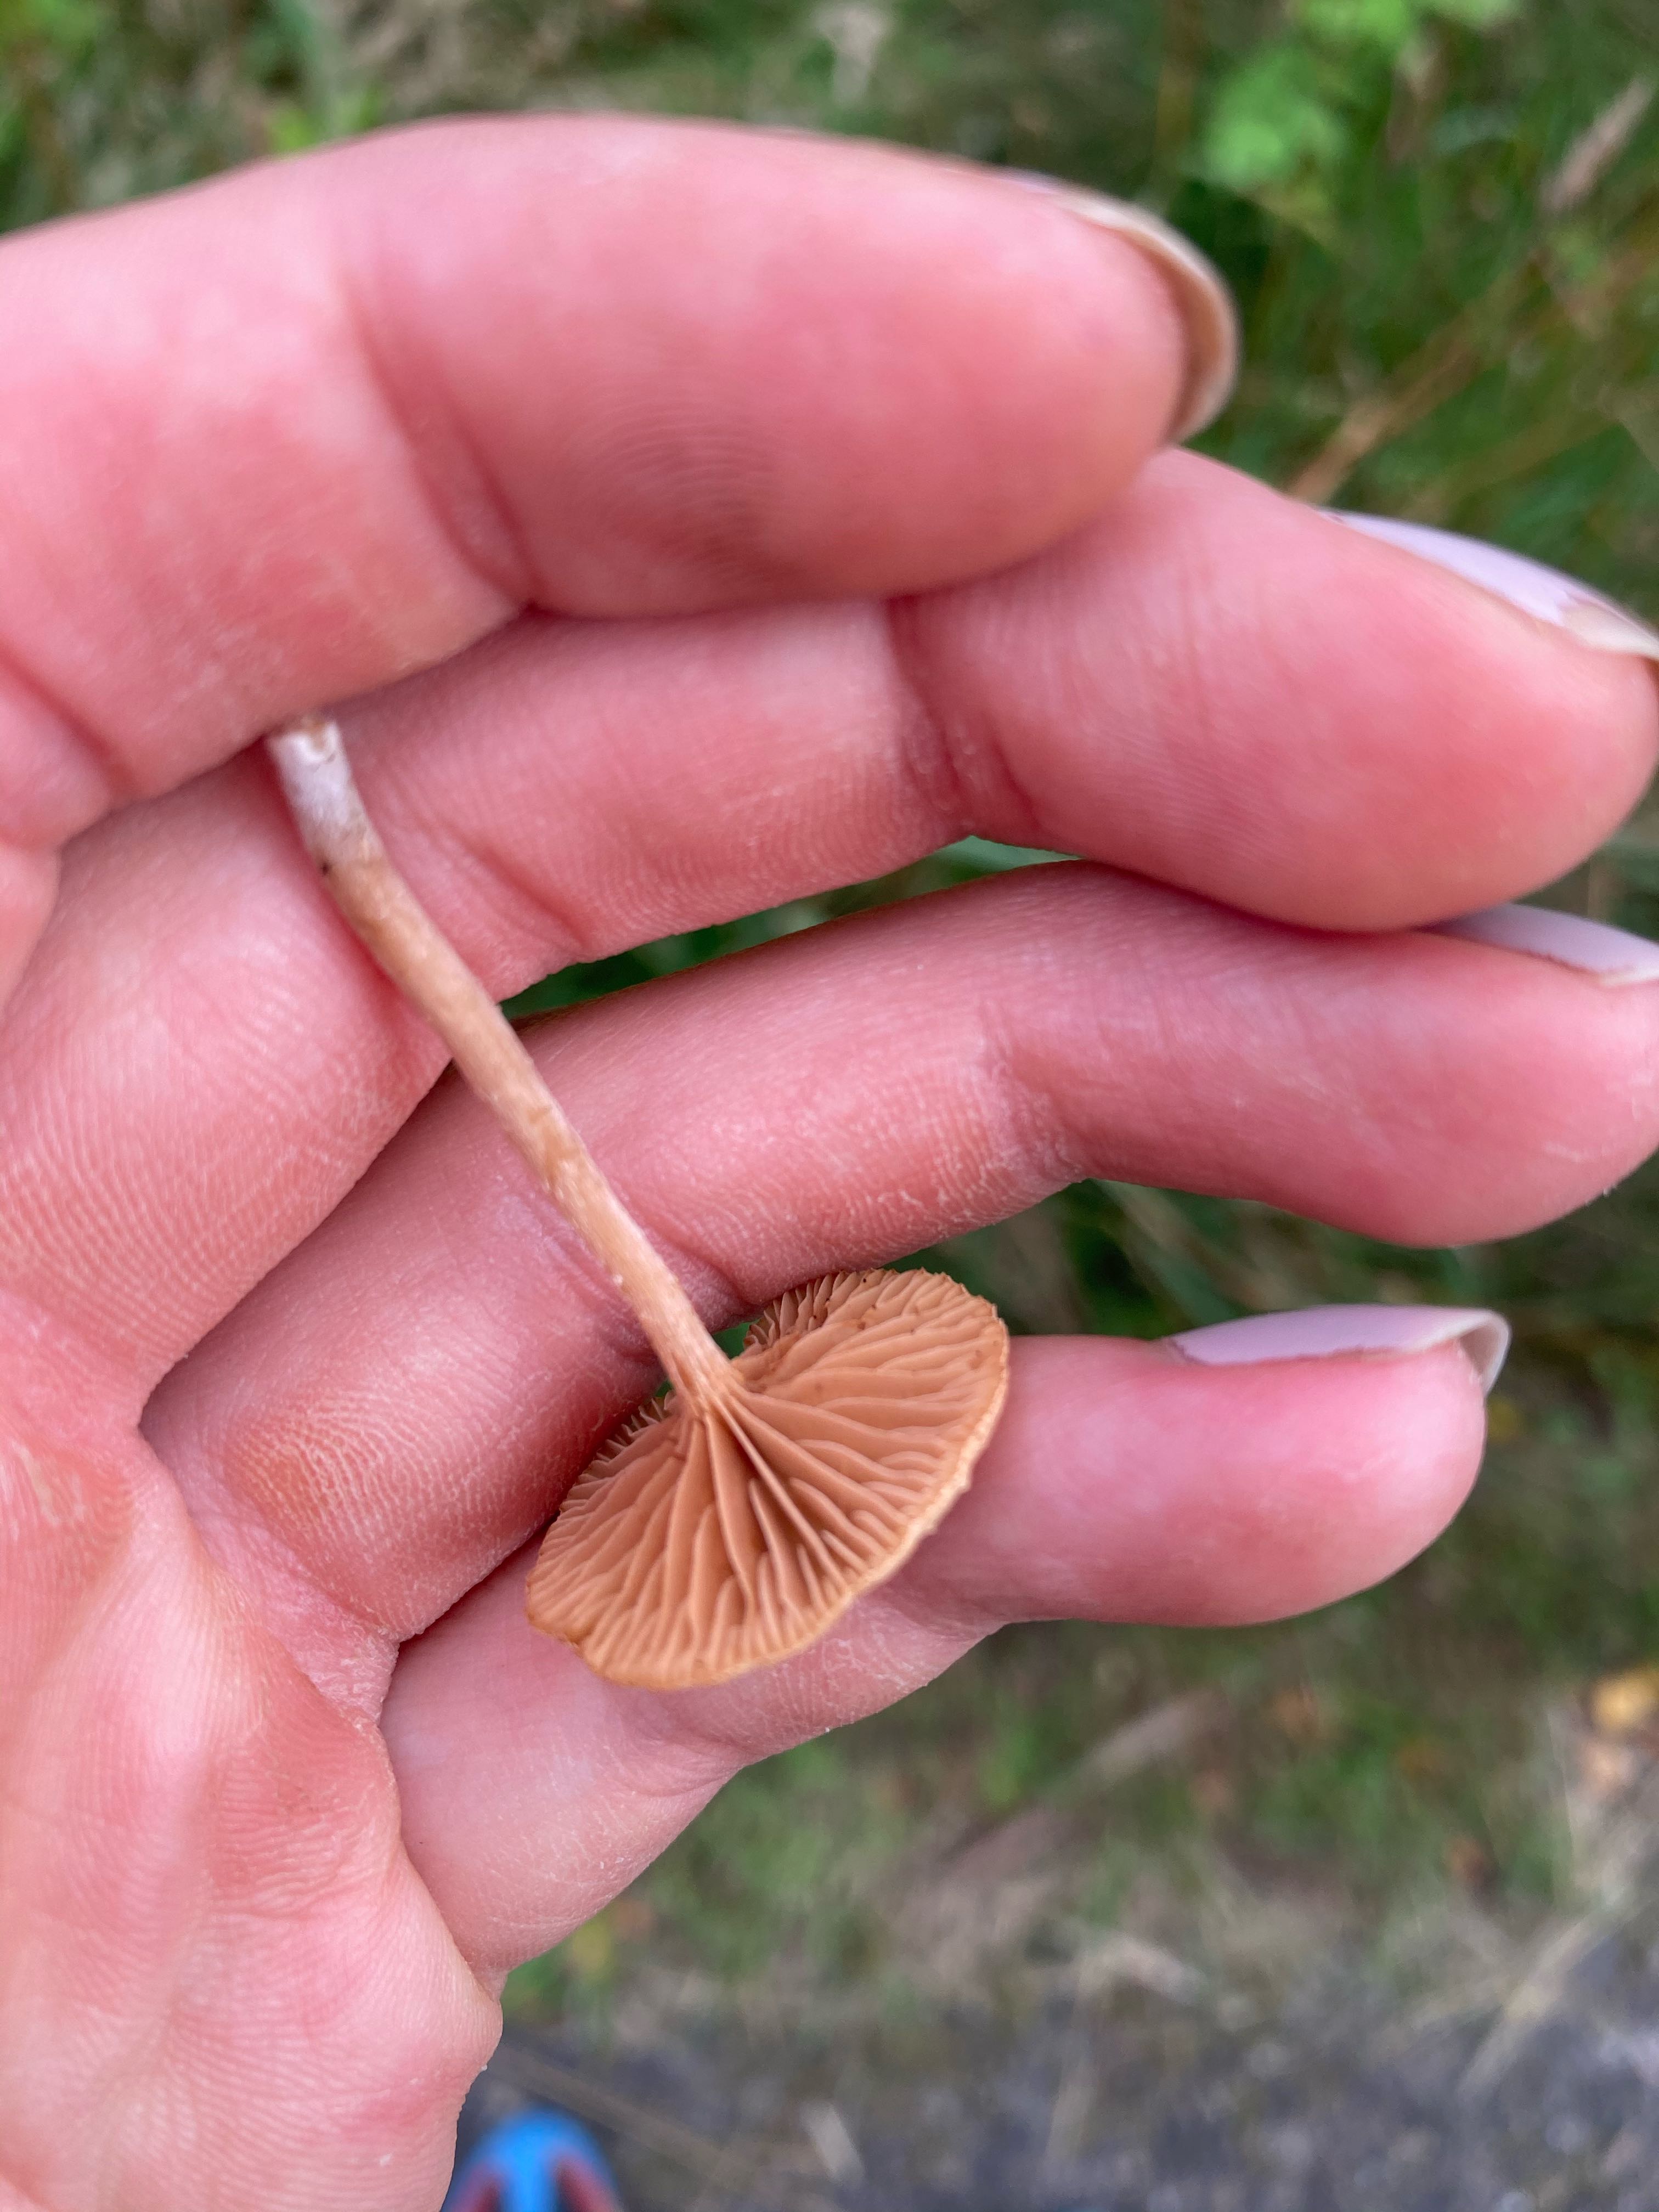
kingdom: Fungi
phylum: Basidiomycota
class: Agaricomycetes
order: Agaricales
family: Tubariaceae
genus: Tubaria
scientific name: Tubaria
